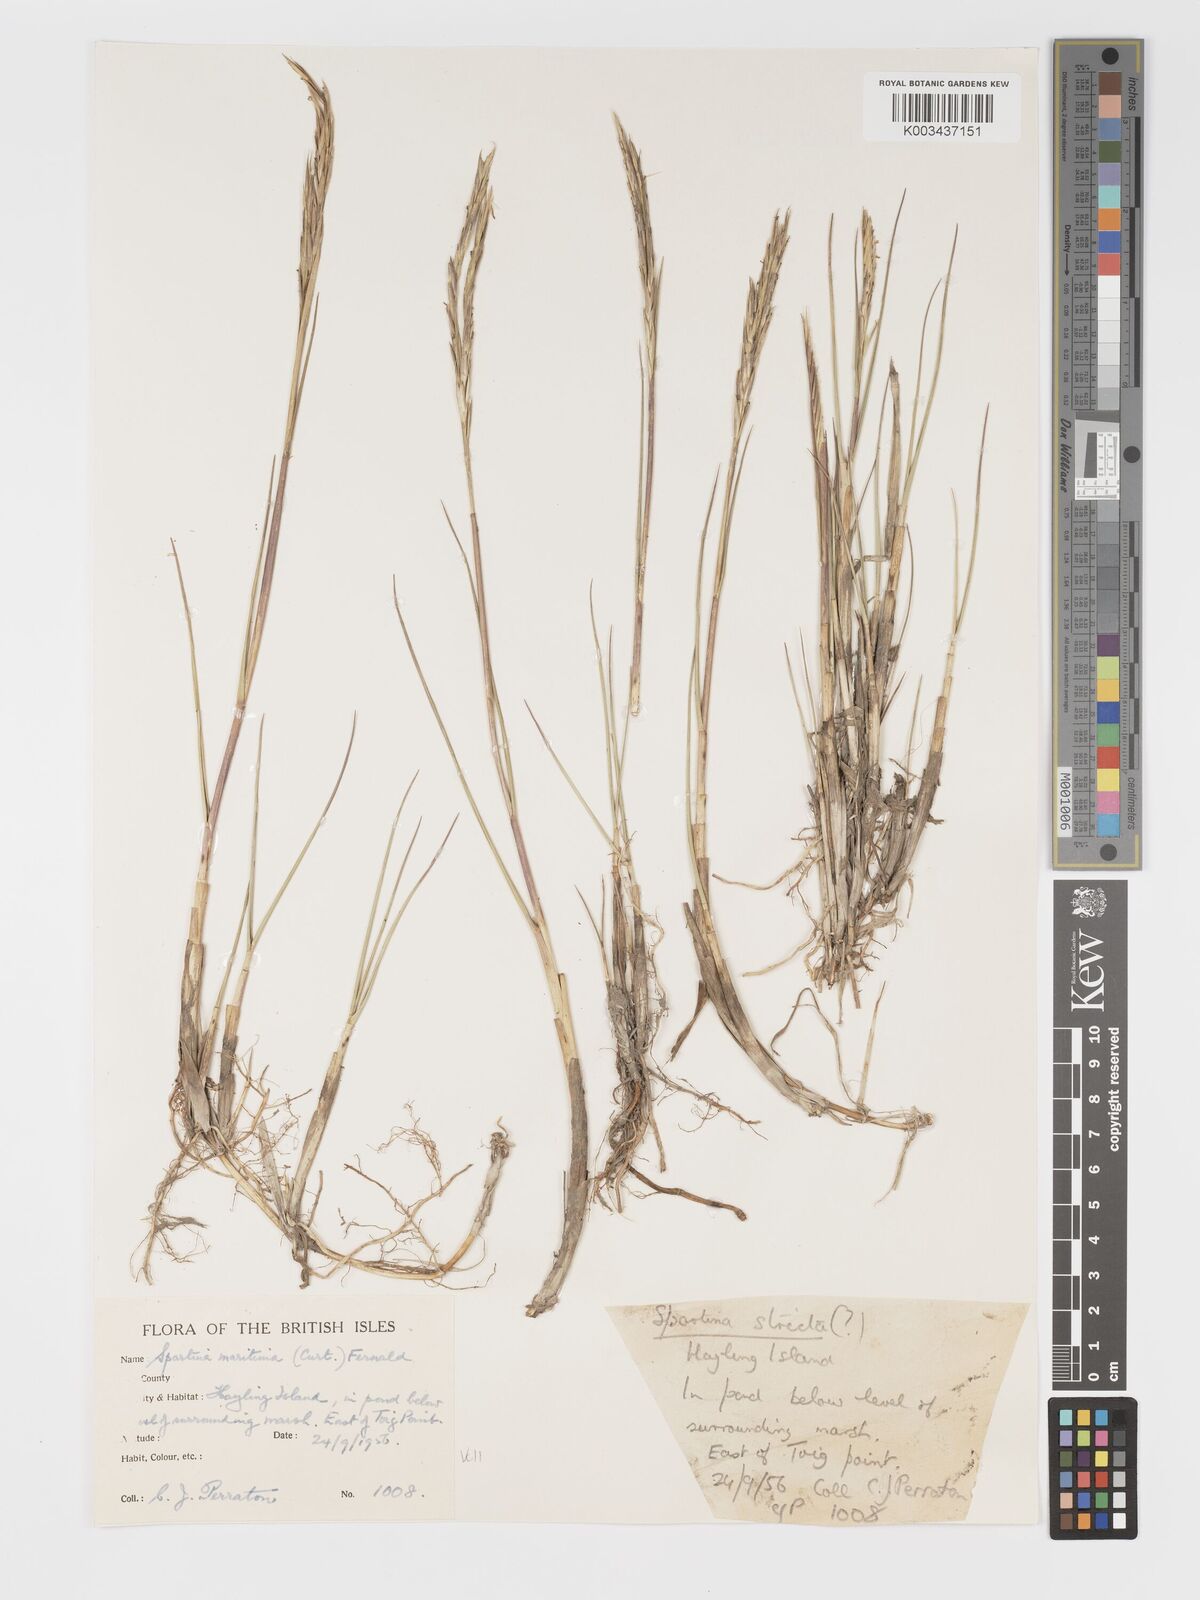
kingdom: Plantae
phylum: Tracheophyta
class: Liliopsida
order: Poales
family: Poaceae
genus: Sporobolus
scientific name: Sporobolus maritimus
